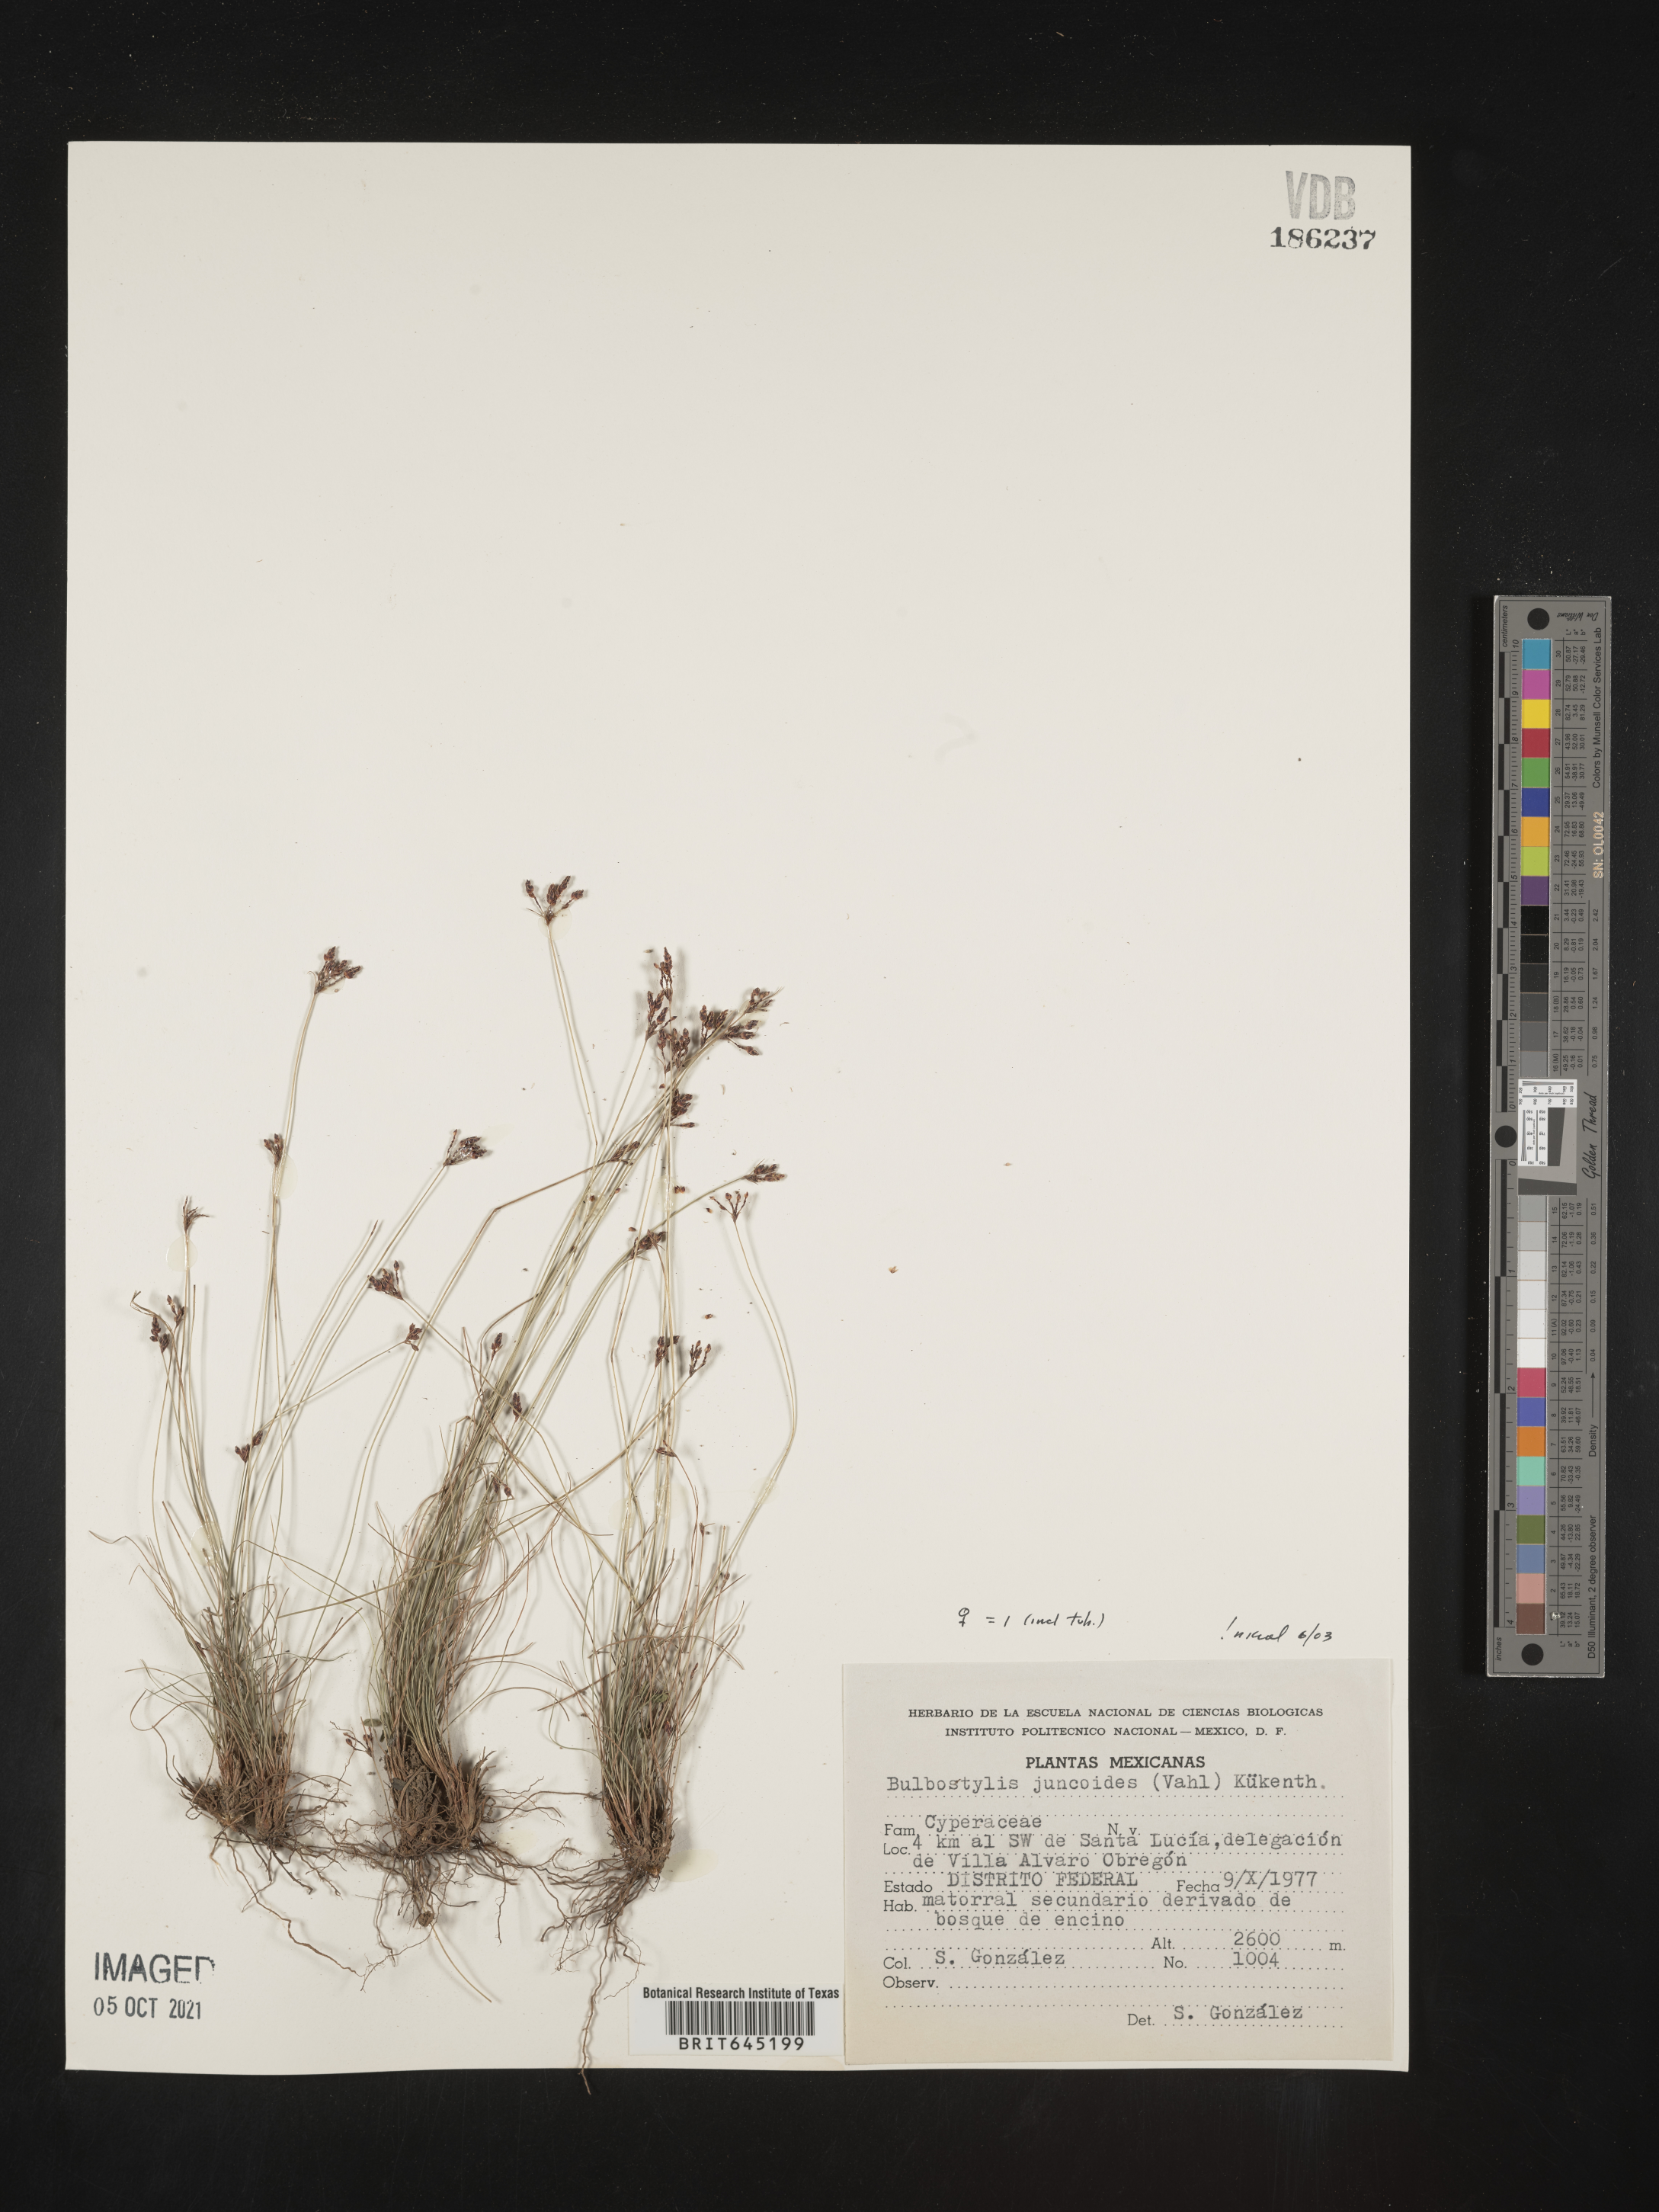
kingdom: Plantae
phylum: Tracheophyta
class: Liliopsida
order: Poales
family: Cyperaceae
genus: Bulbostylis
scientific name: Bulbostylis juncoides
